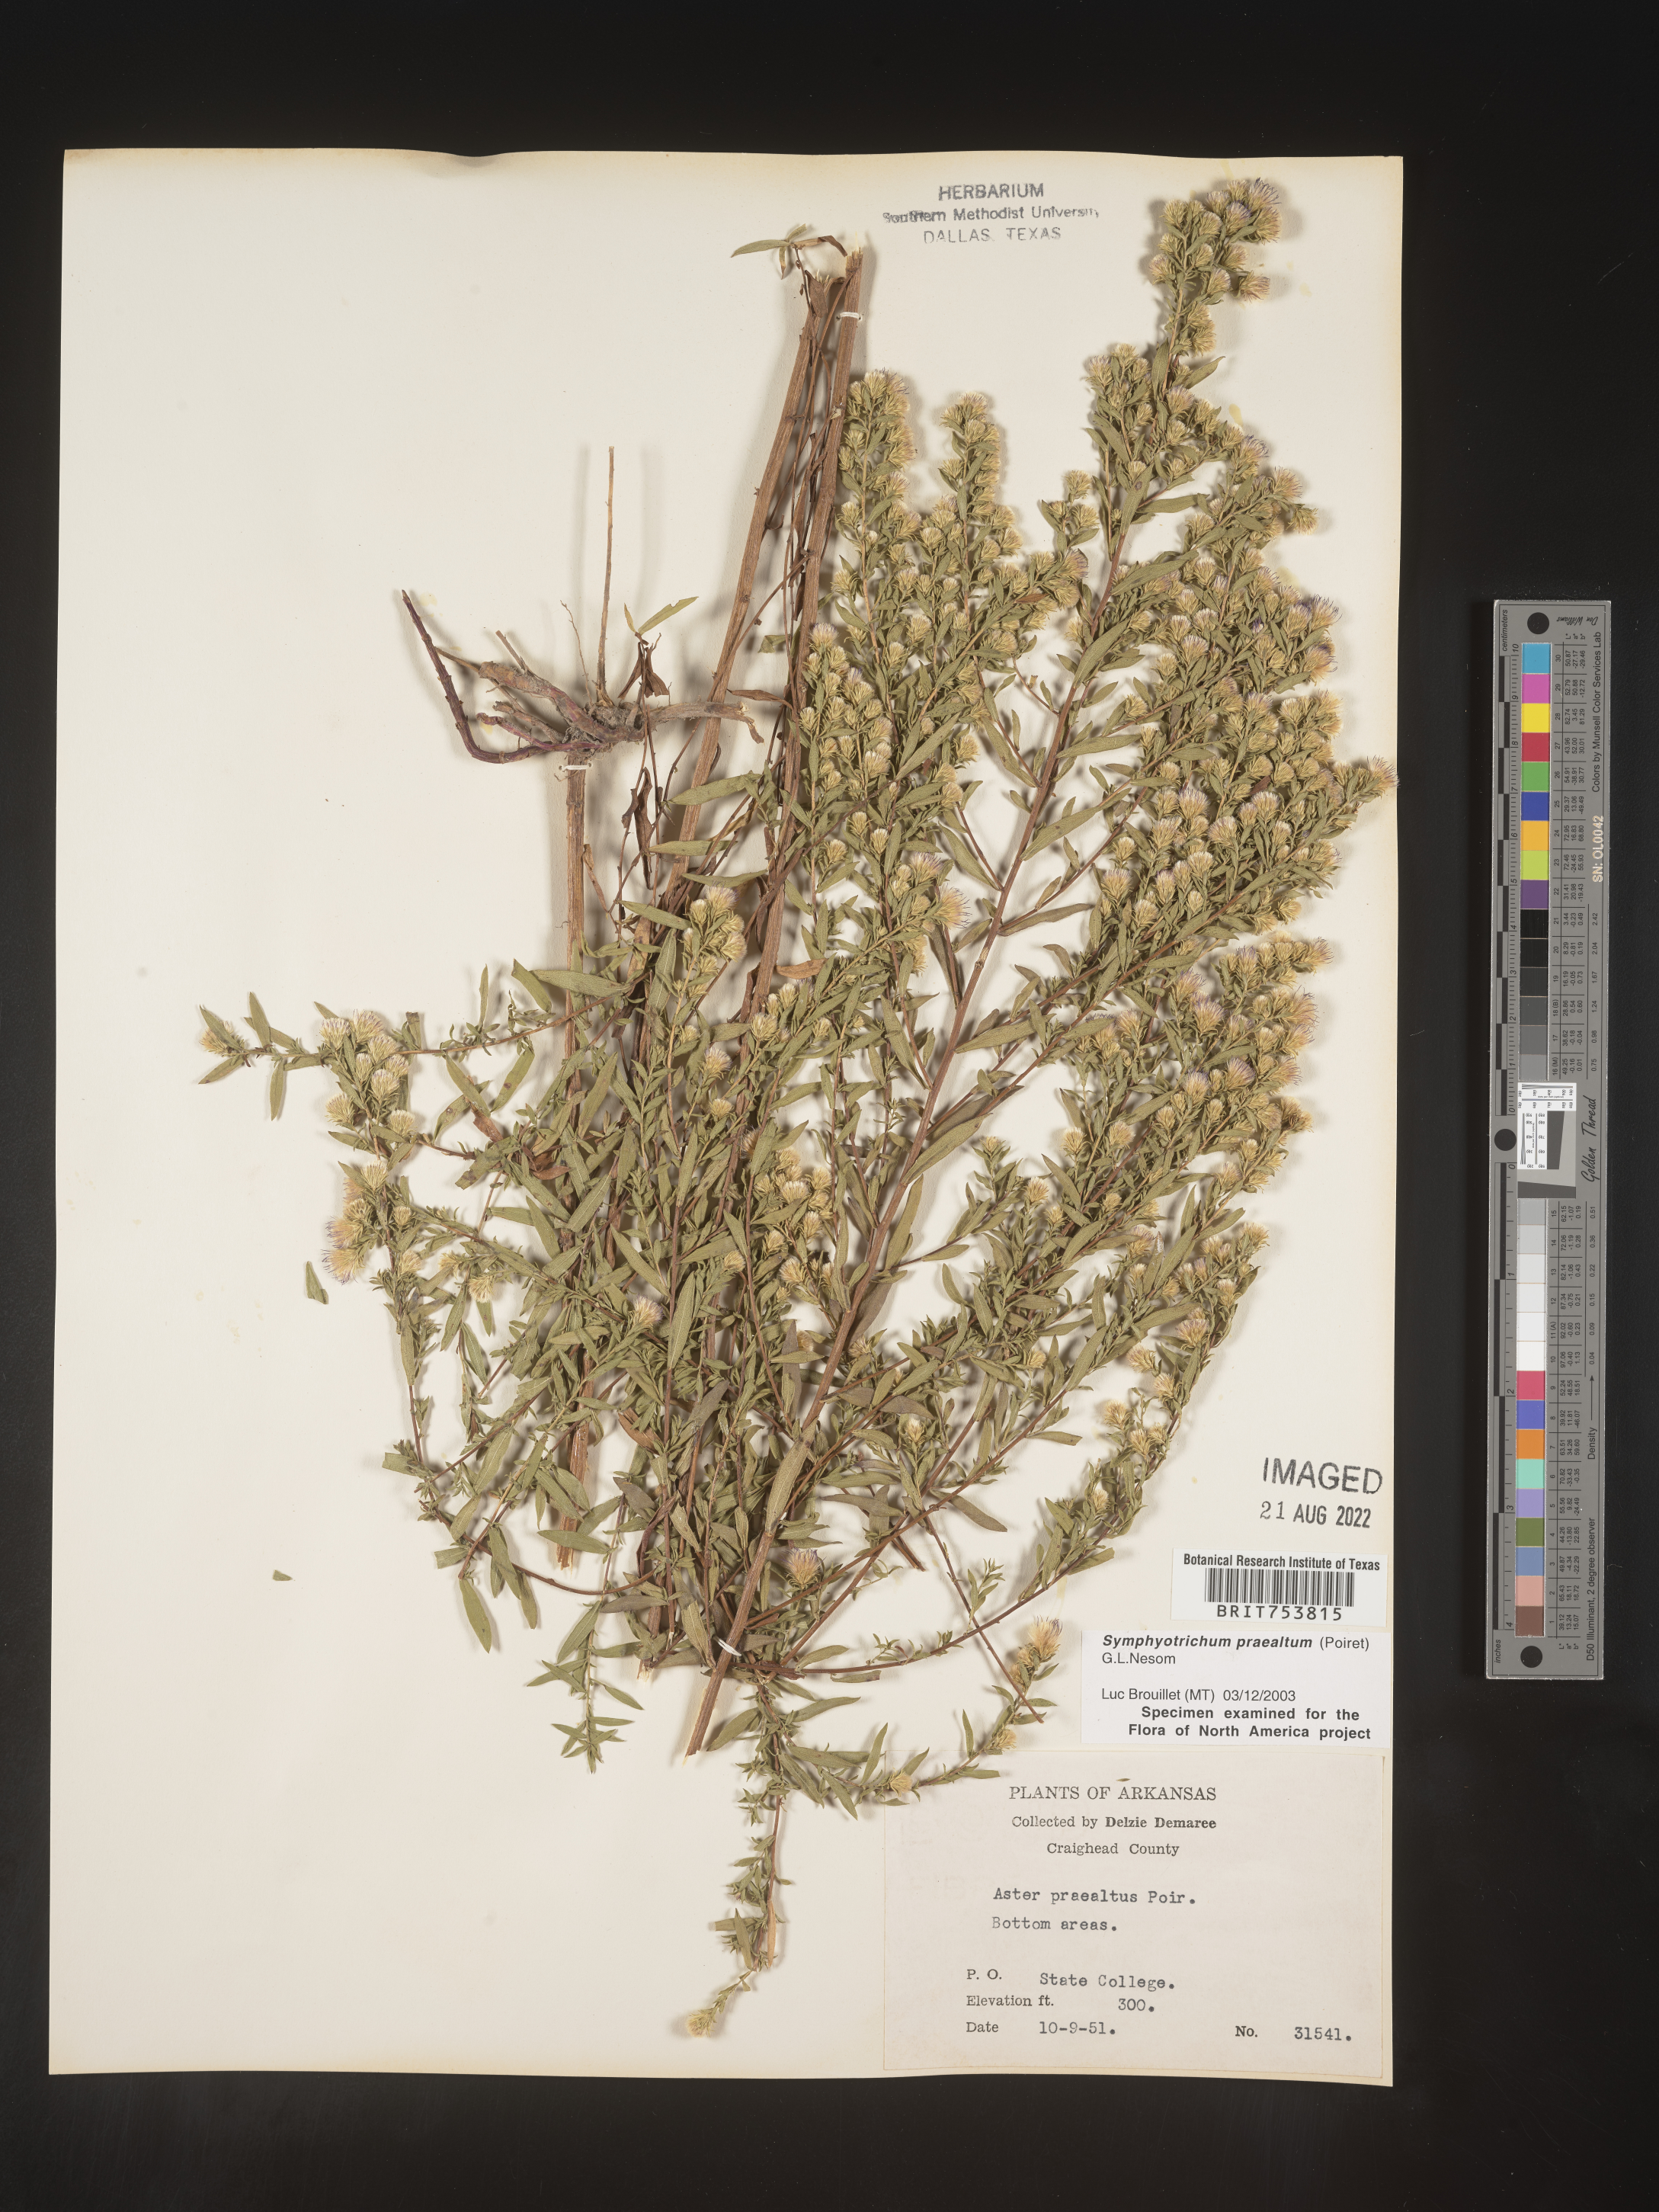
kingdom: Plantae
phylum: Tracheophyta
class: Magnoliopsida
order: Asterales
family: Asteraceae
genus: Symphyotrichum
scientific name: Symphyotrichum praealtum
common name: Willow aster
